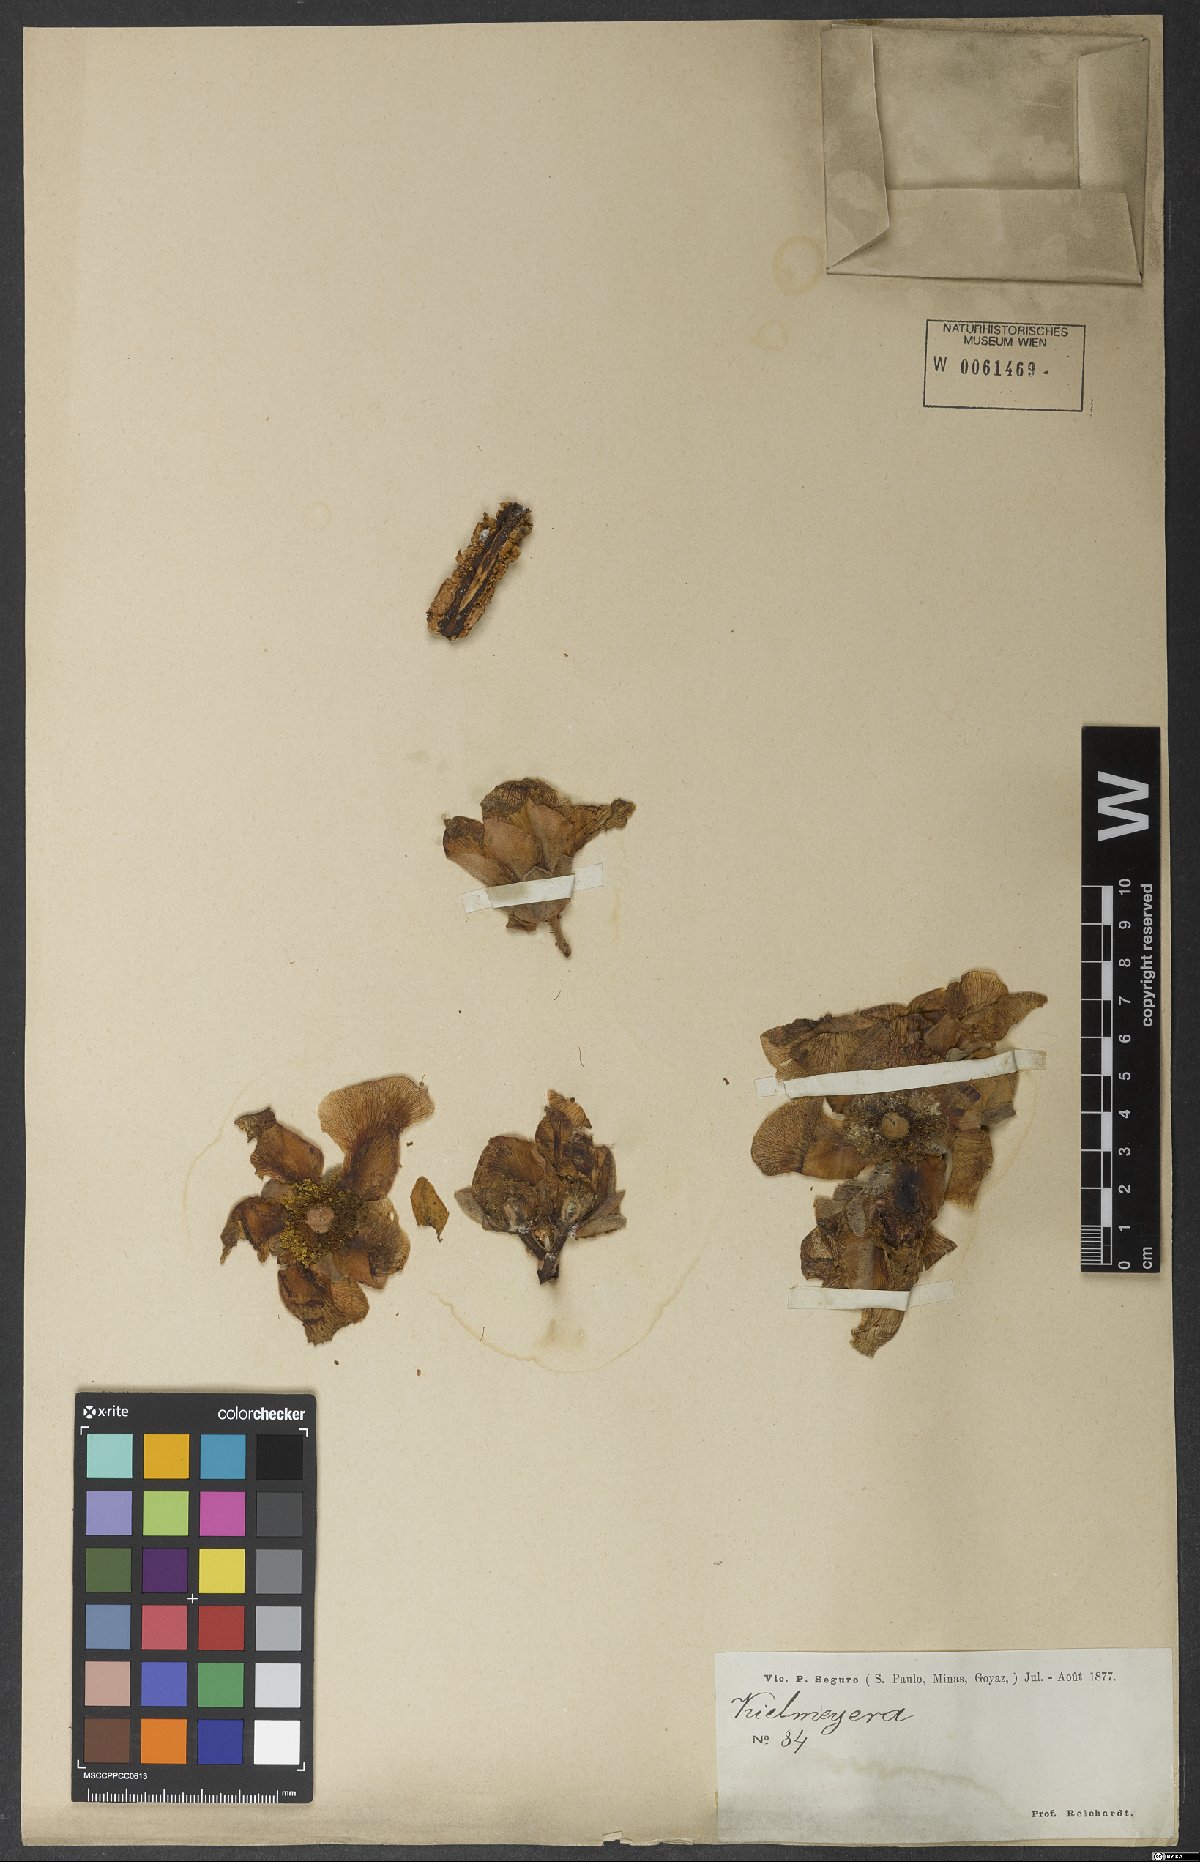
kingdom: Plantae
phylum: Tracheophyta
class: Magnoliopsida
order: Malpighiales
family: Calophyllaceae
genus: Kielmeyera
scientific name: Kielmeyera speciosa
